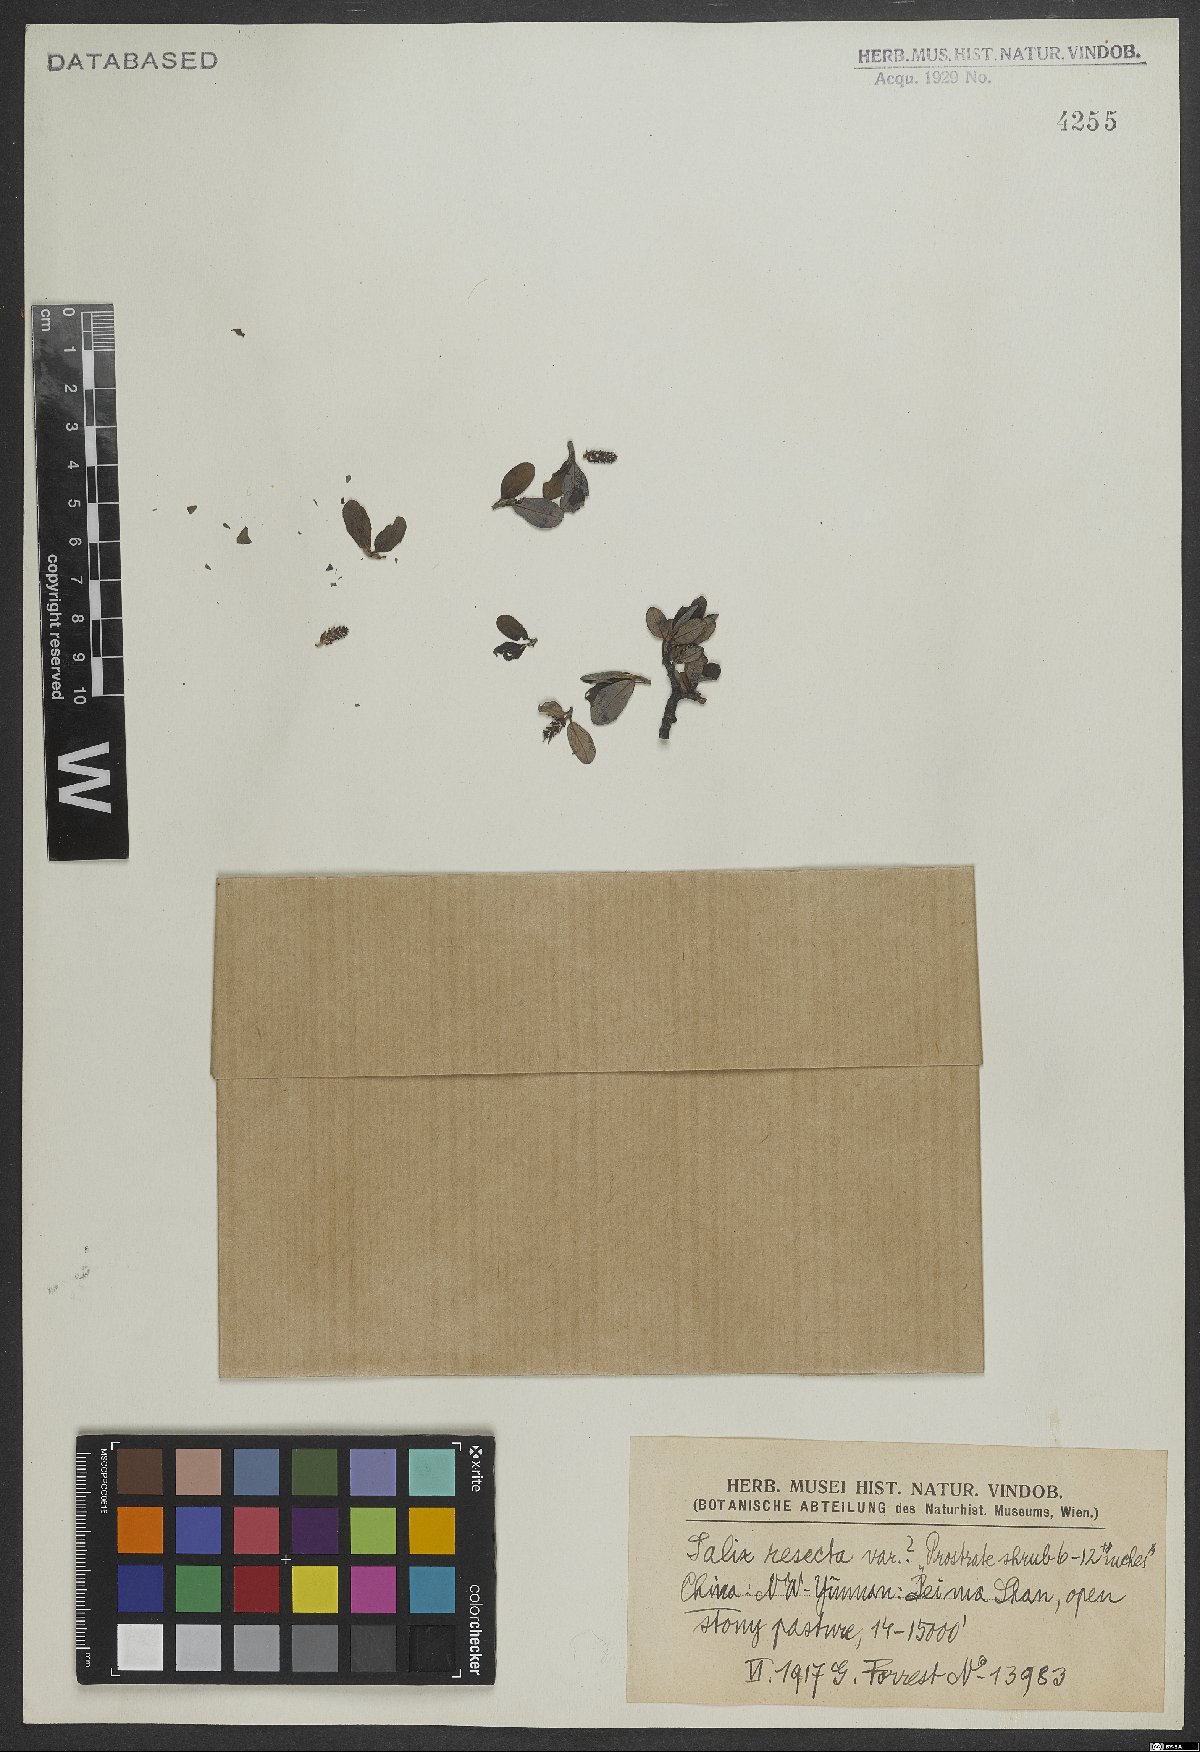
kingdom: Plantae
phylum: Tracheophyta
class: Magnoliopsida
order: Malpighiales
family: Salicaceae
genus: Salix
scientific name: Salix resecta
